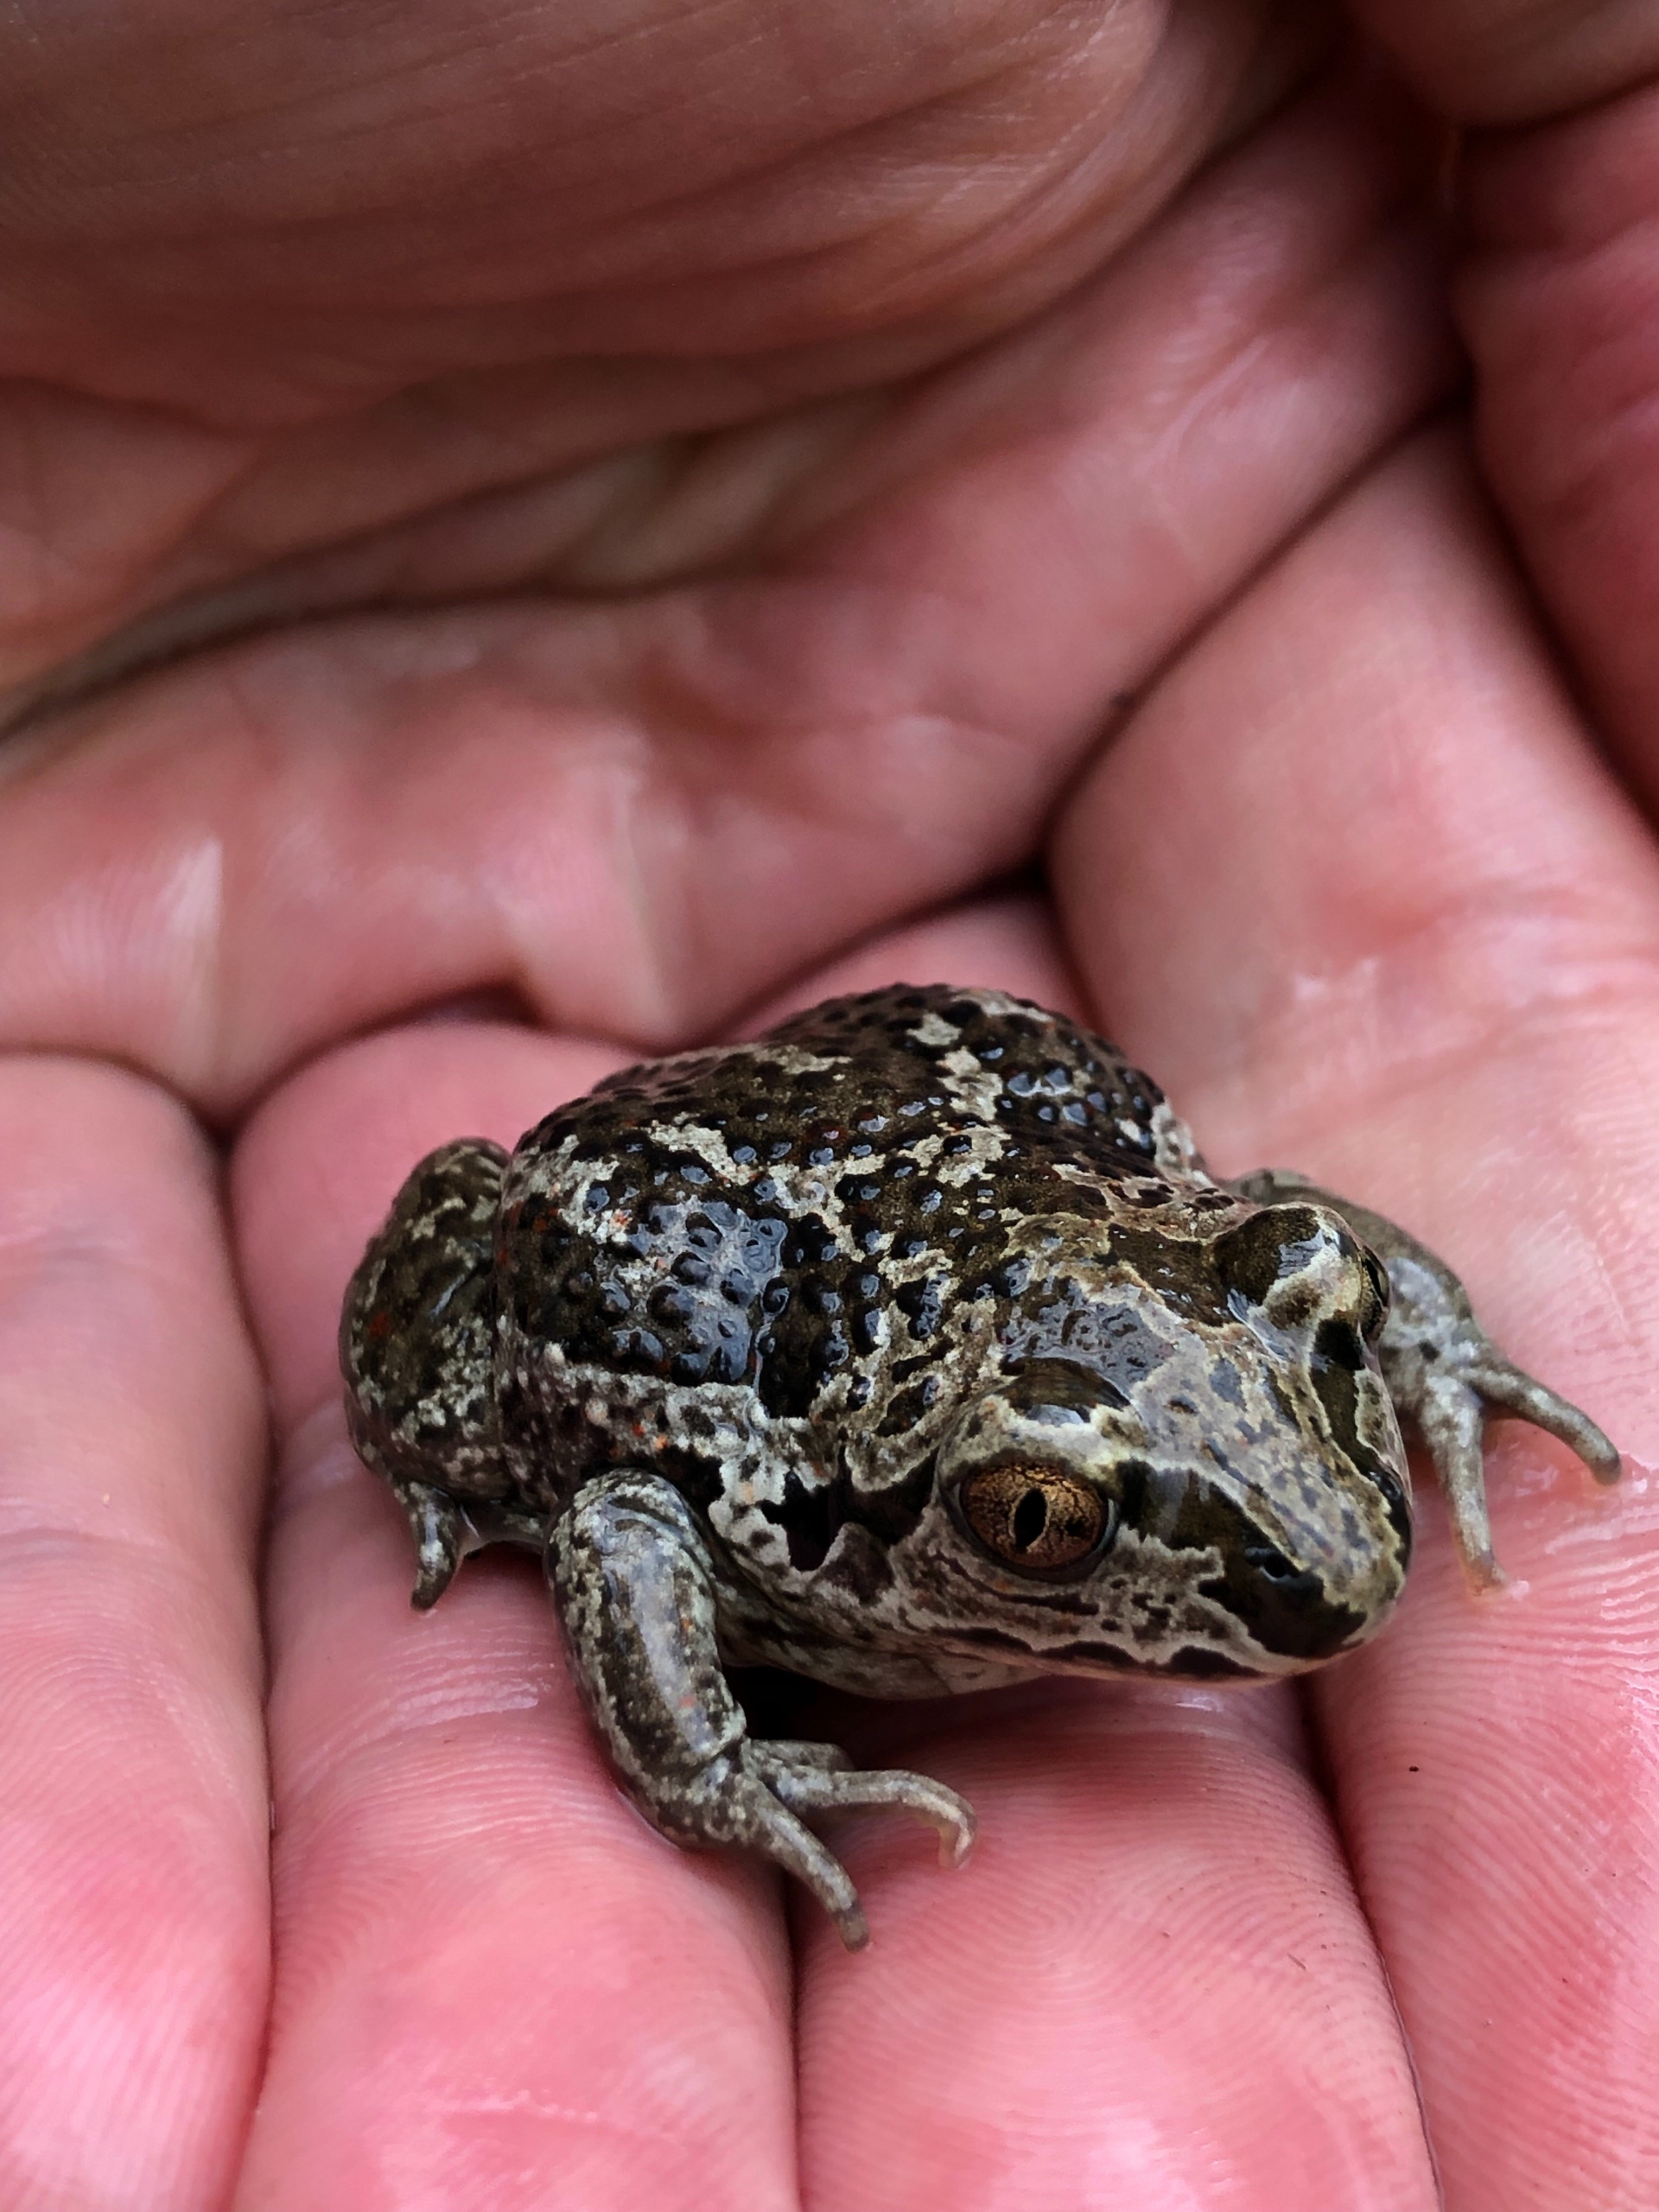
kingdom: Animalia
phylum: Chordata
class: Amphibia
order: Anura
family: Pelobatidae
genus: Pelobates
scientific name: Pelobates fuscus
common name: Løgfrø
